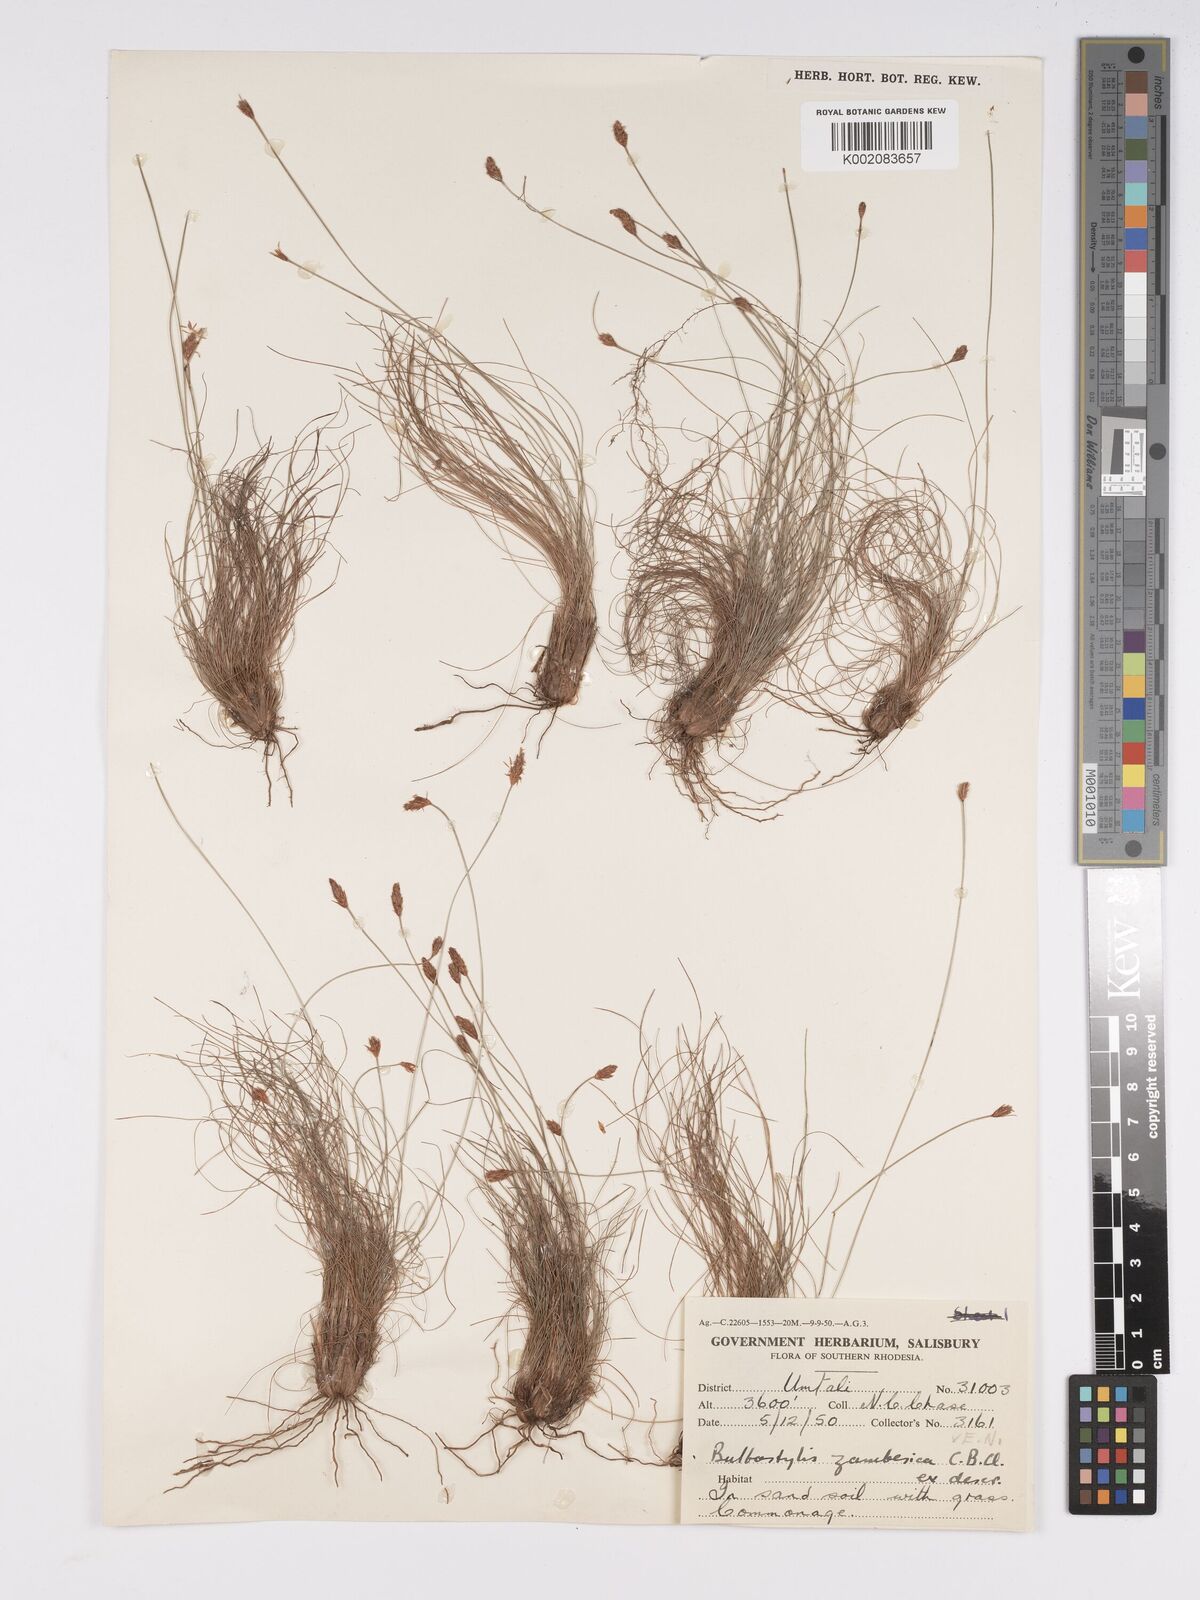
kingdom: Plantae
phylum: Tracheophyta
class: Liliopsida
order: Poales
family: Cyperaceae
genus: Bulbostylis
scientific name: Bulbostylis macra
